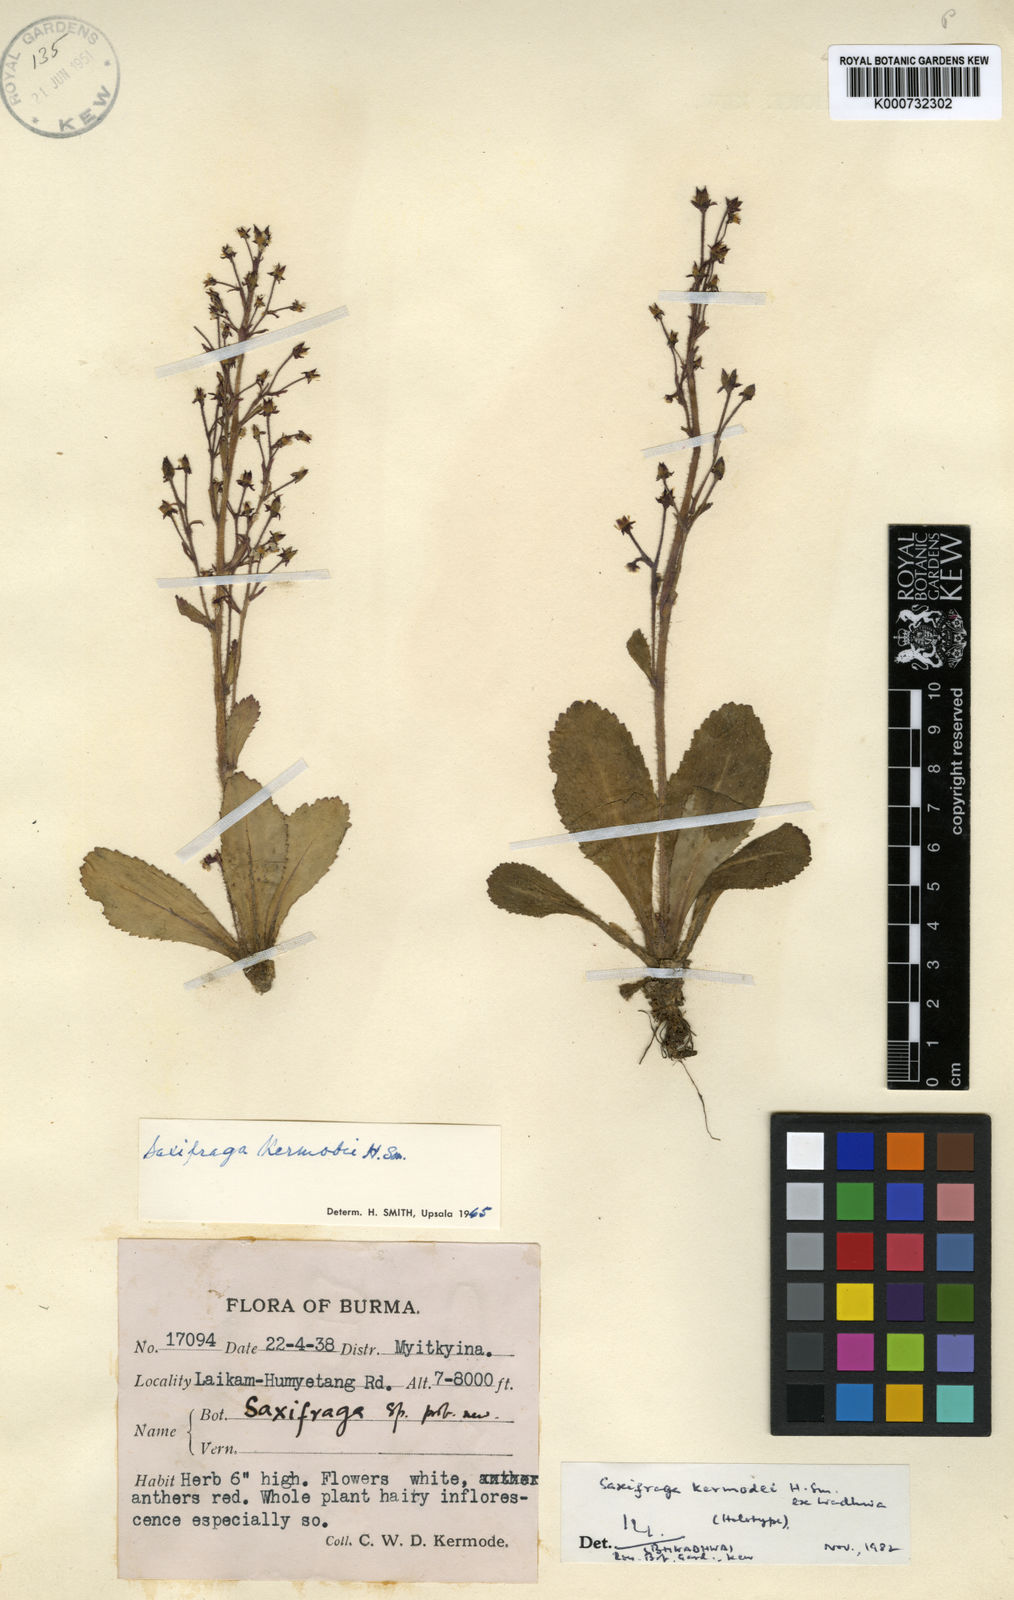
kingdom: Plantae
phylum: Tracheophyta
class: Magnoliopsida
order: Saxifragales
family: Saxifragaceae
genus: Micranthes
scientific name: Micranthes kermodei
